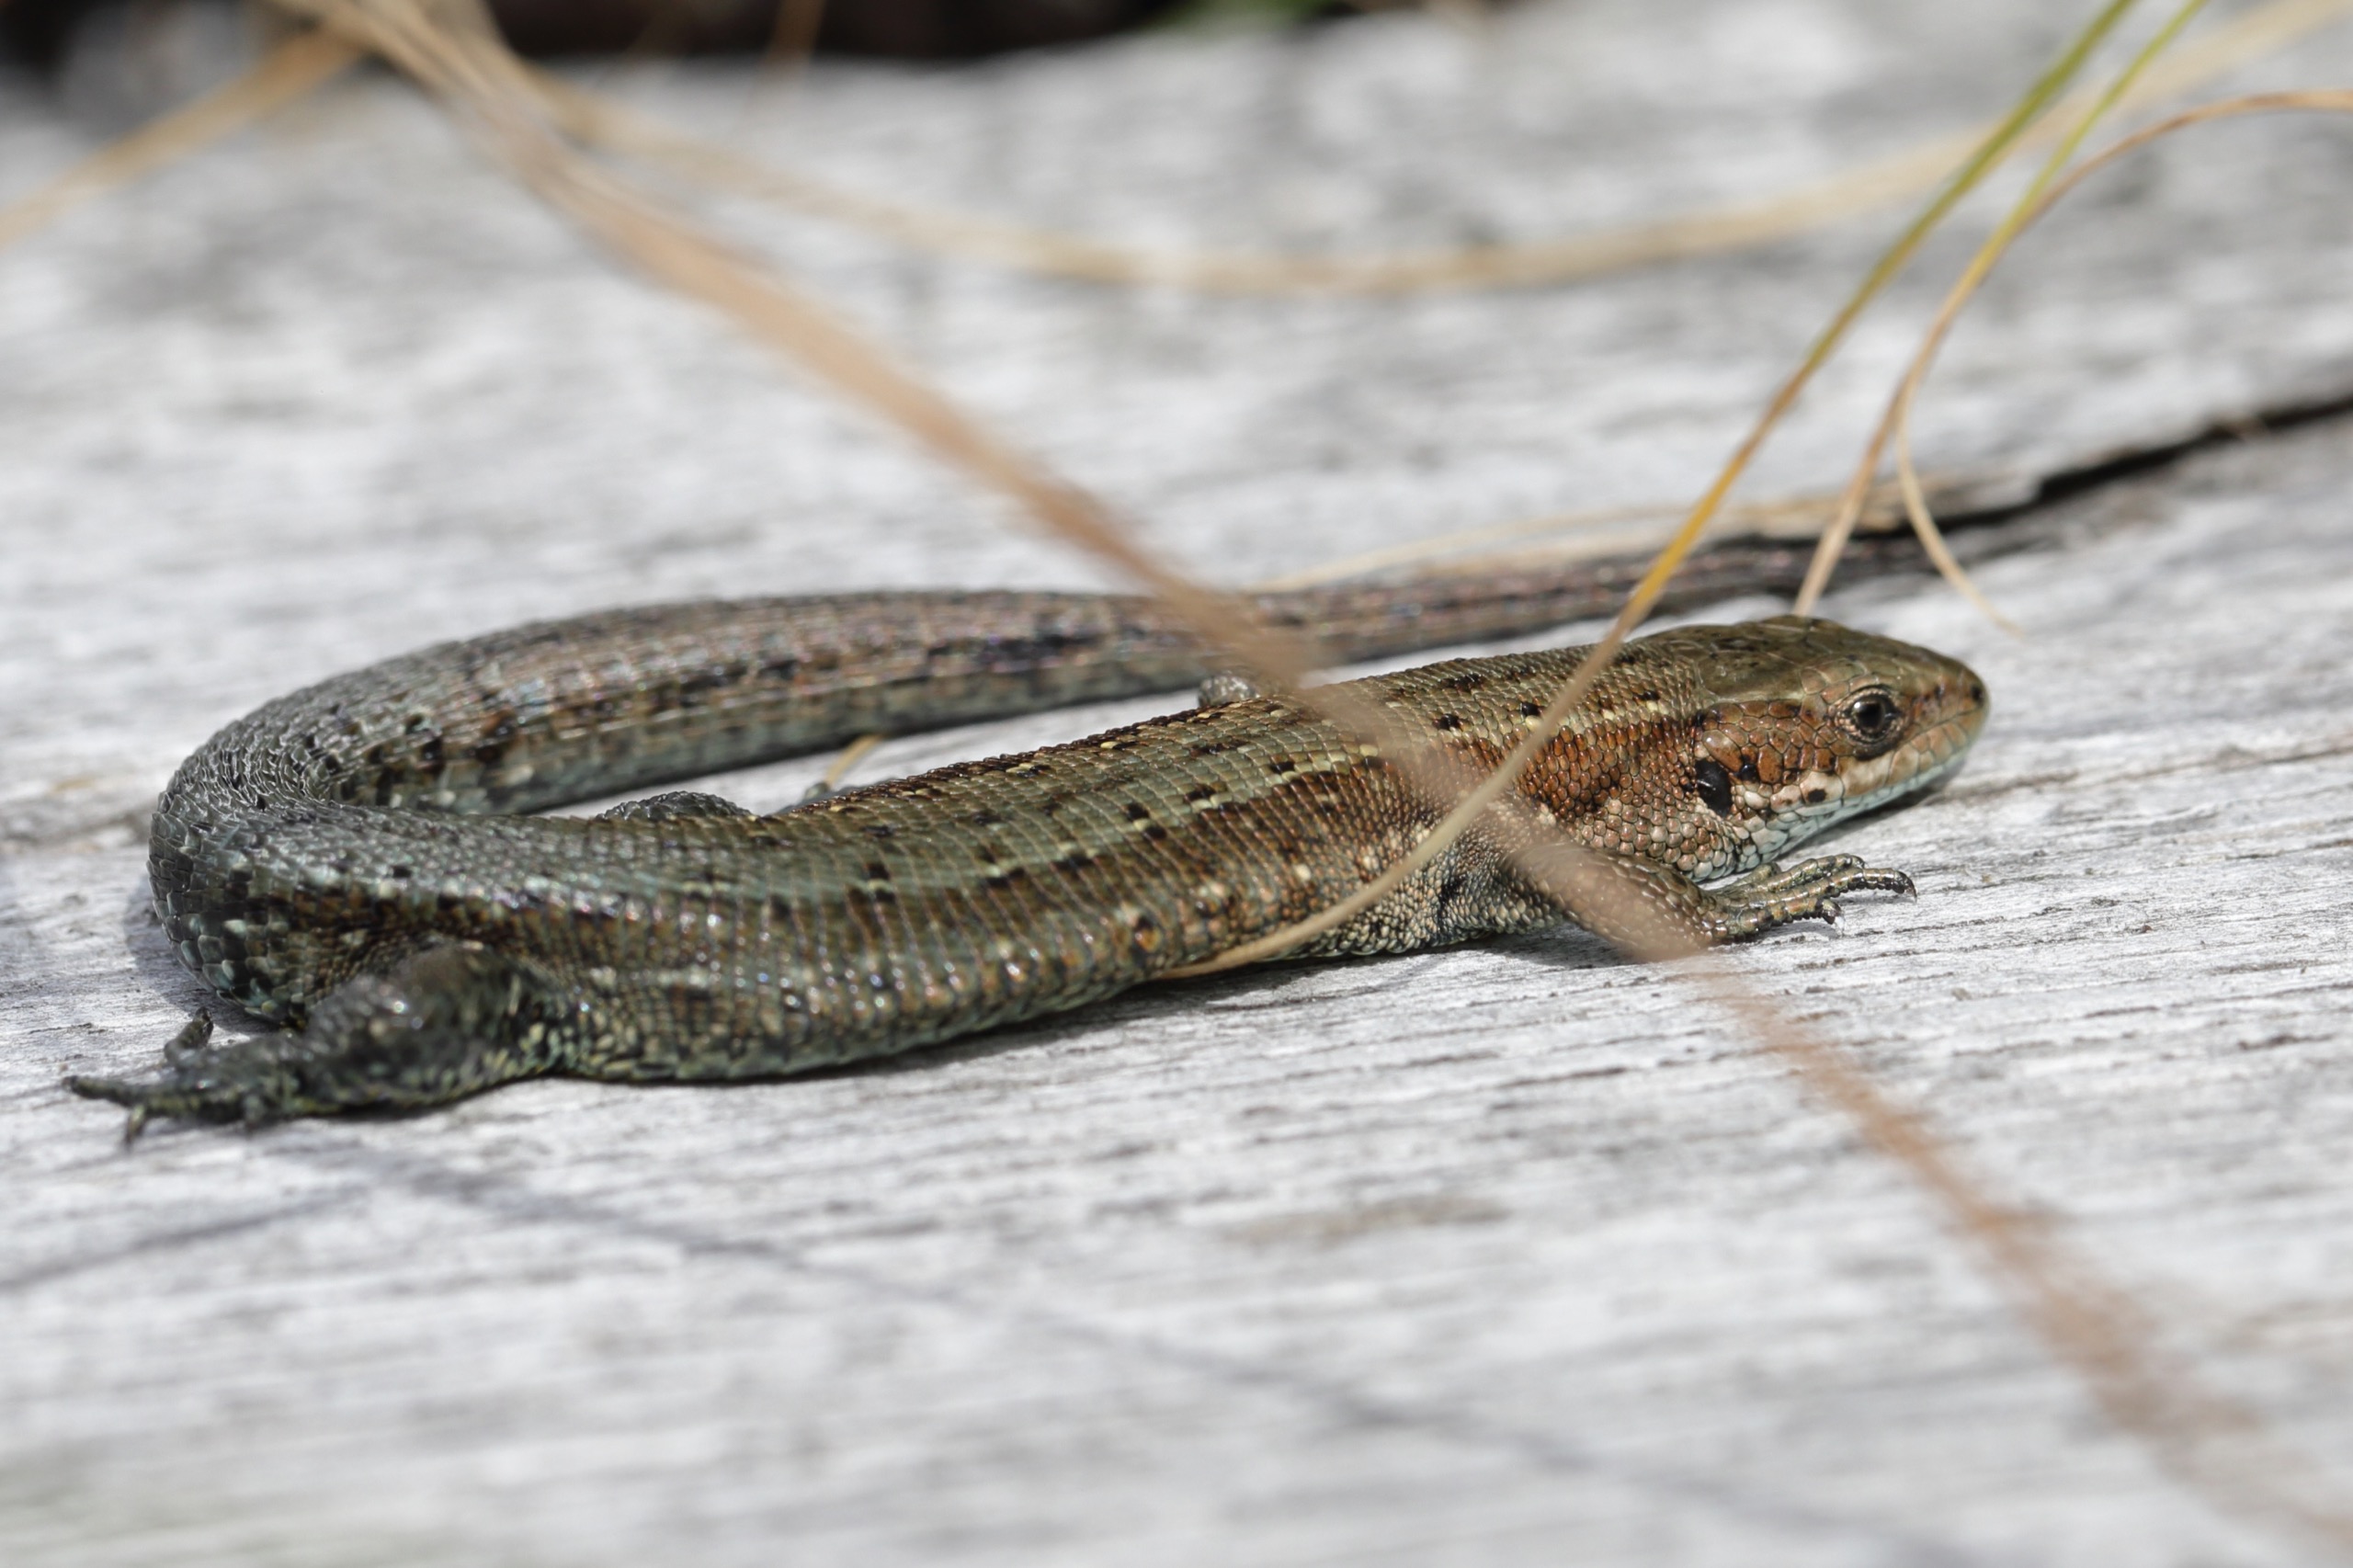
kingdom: Animalia
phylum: Chordata
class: Squamata
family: Lacertidae
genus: Zootoca
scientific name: Zootoca vivipara
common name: Skovfirben
